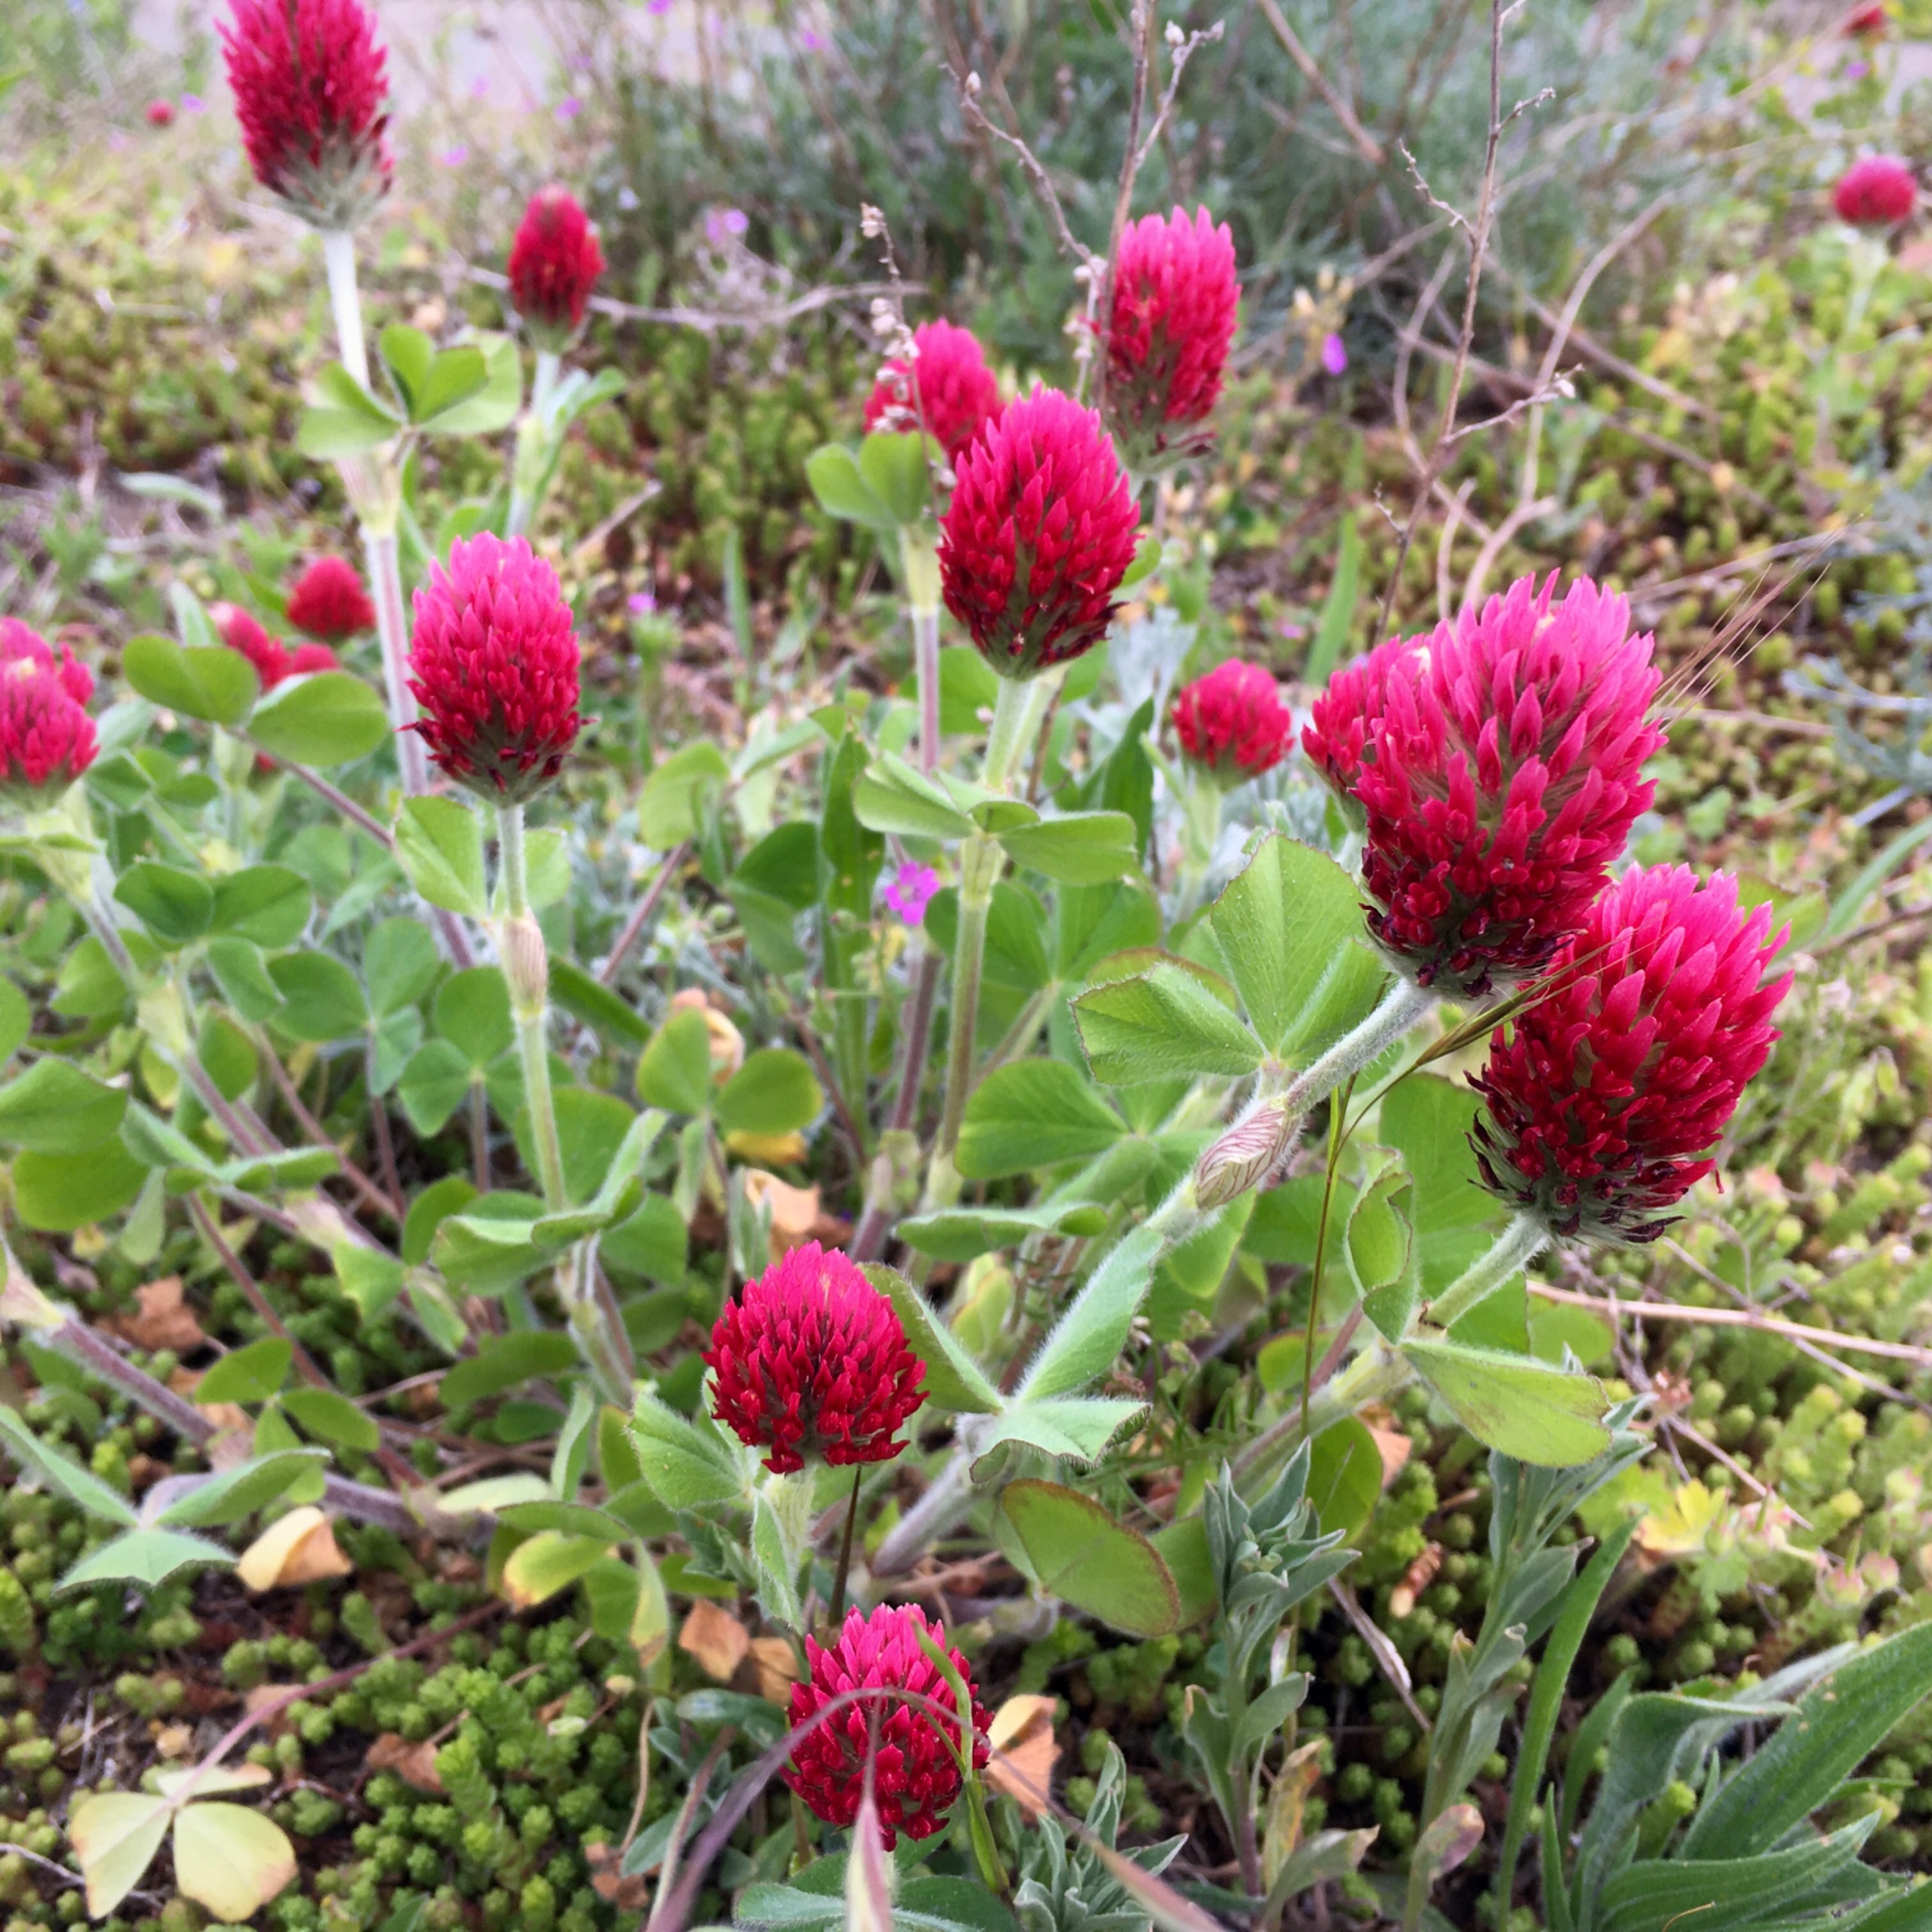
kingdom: Plantae
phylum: Tracheophyta
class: Magnoliopsida
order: Fabales
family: Fabaceae
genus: Trifolium
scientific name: Trifolium incarnatum
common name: Blod-kløver
